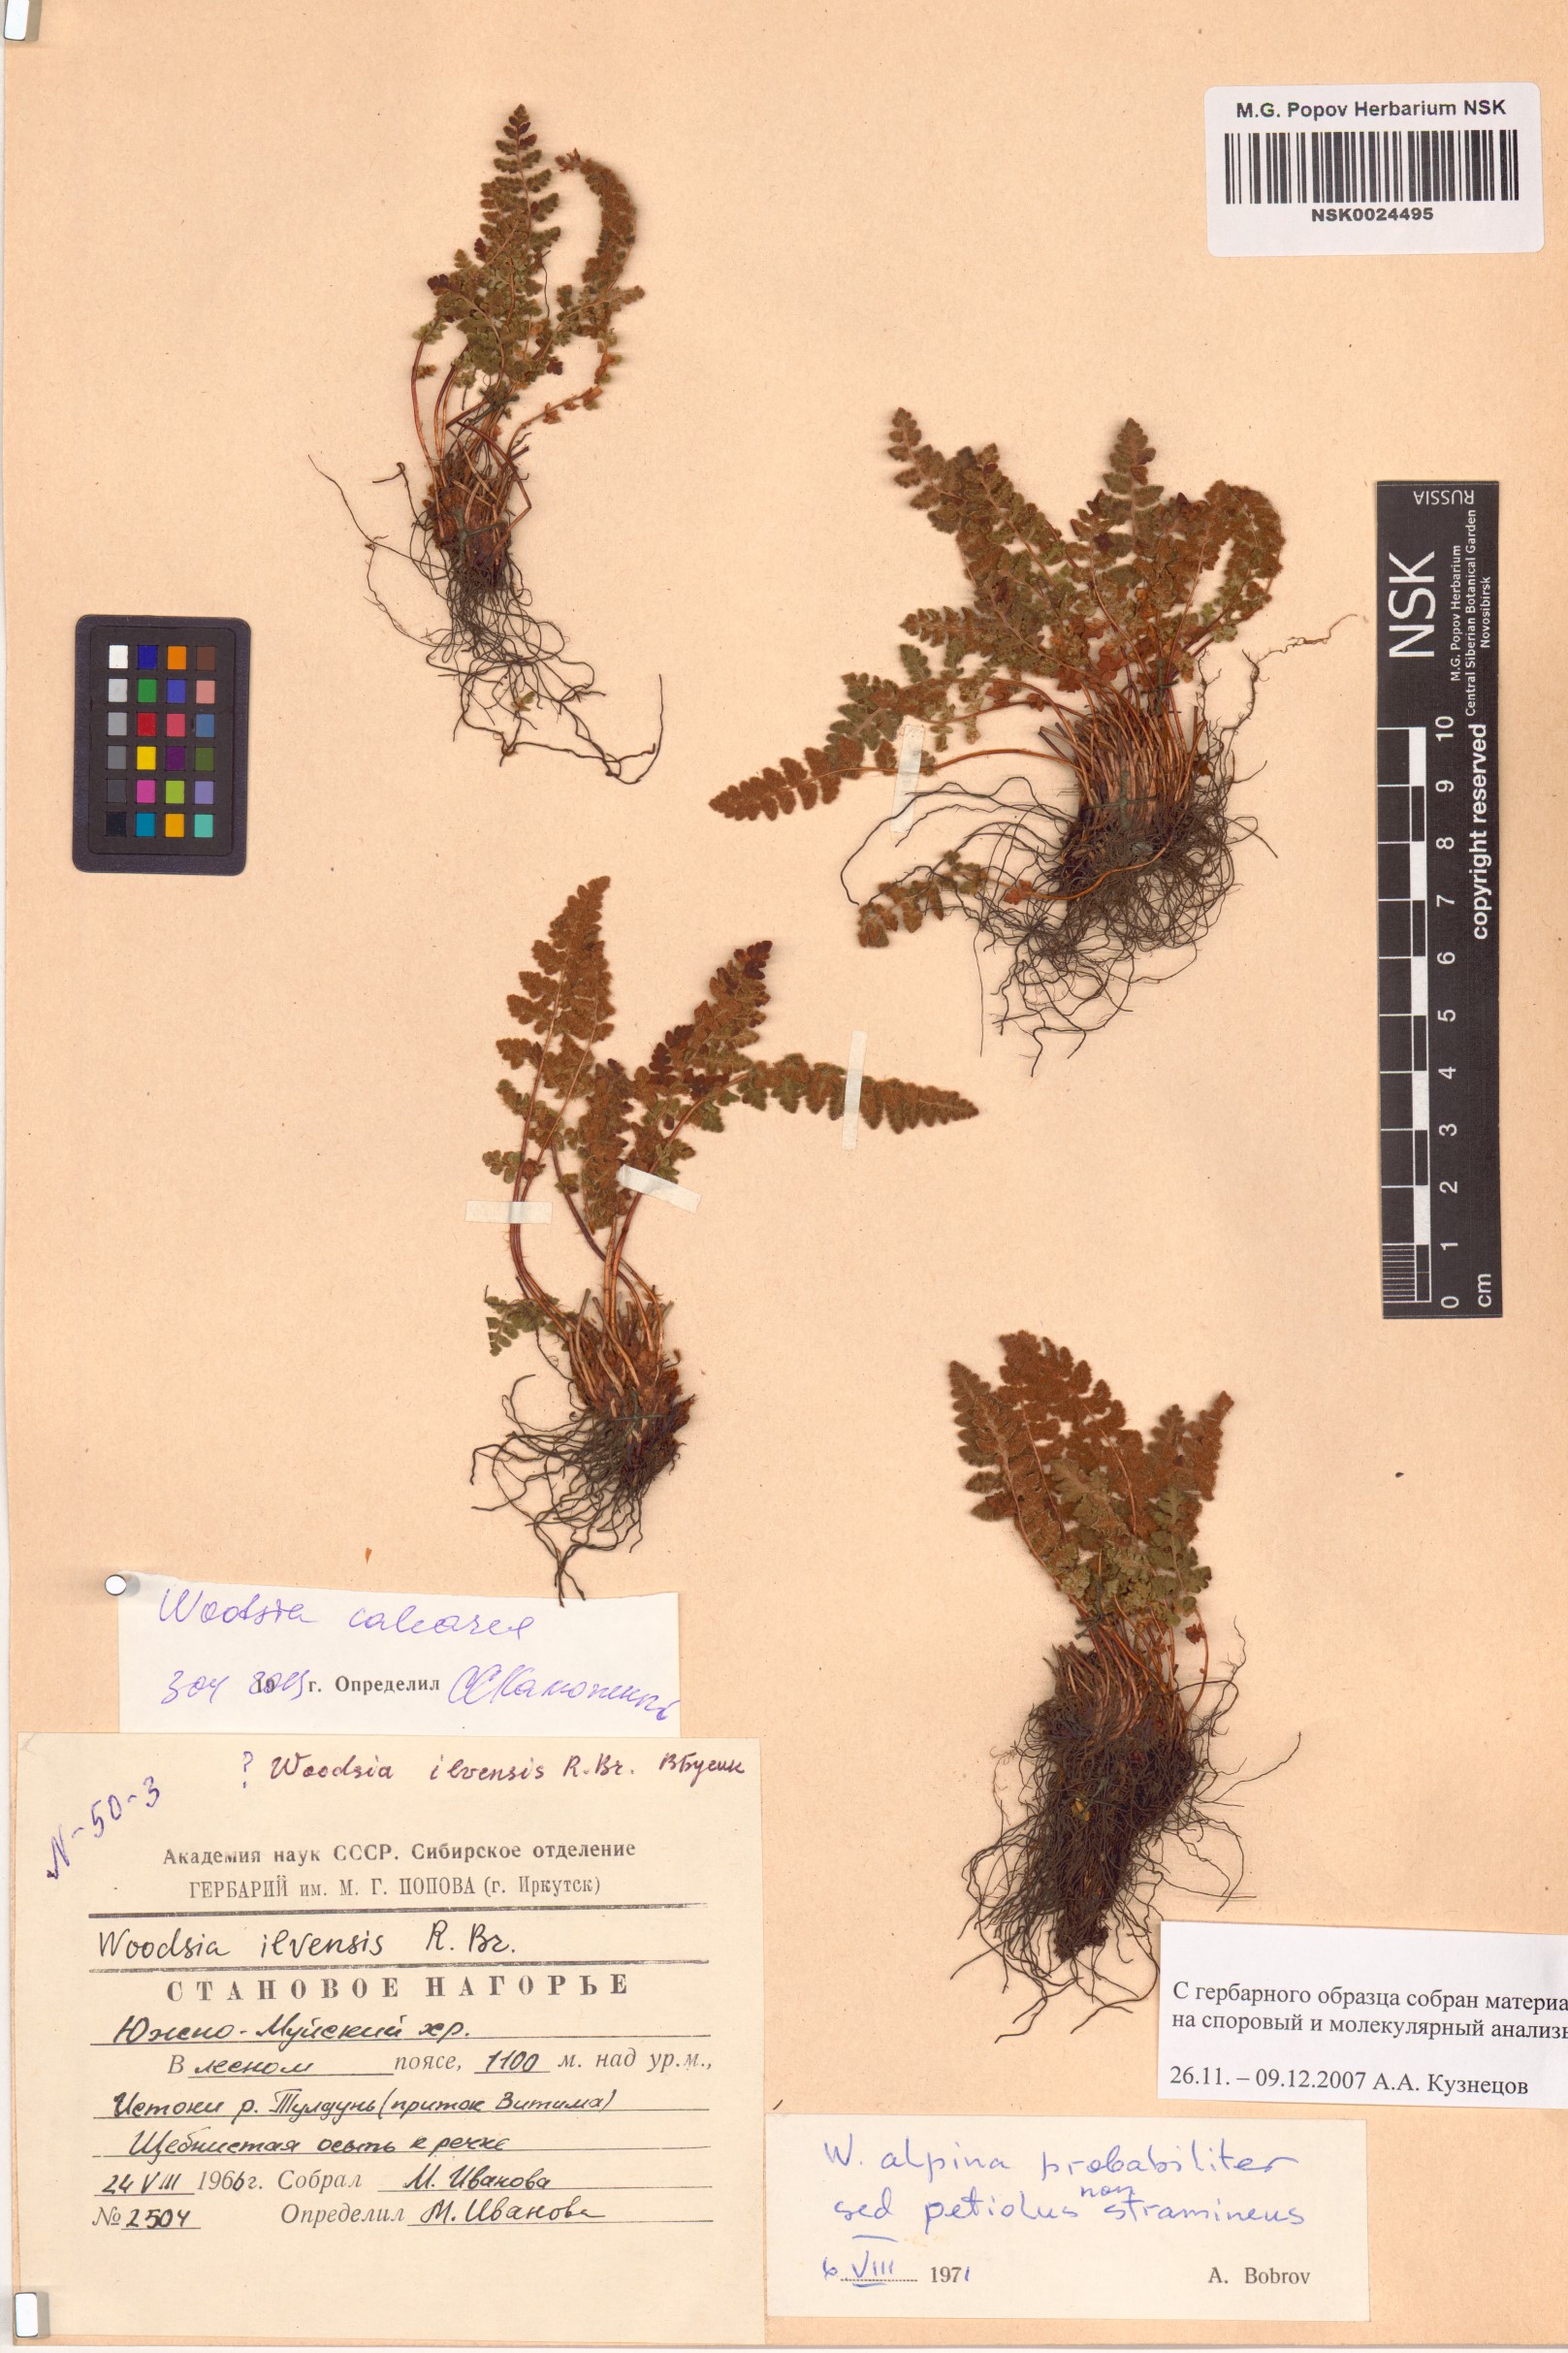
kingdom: Plantae
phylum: Tracheophyta
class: Polypodiopsida
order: Polypodiales
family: Woodsiaceae
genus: Woodsia
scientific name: Woodsia calcarea
